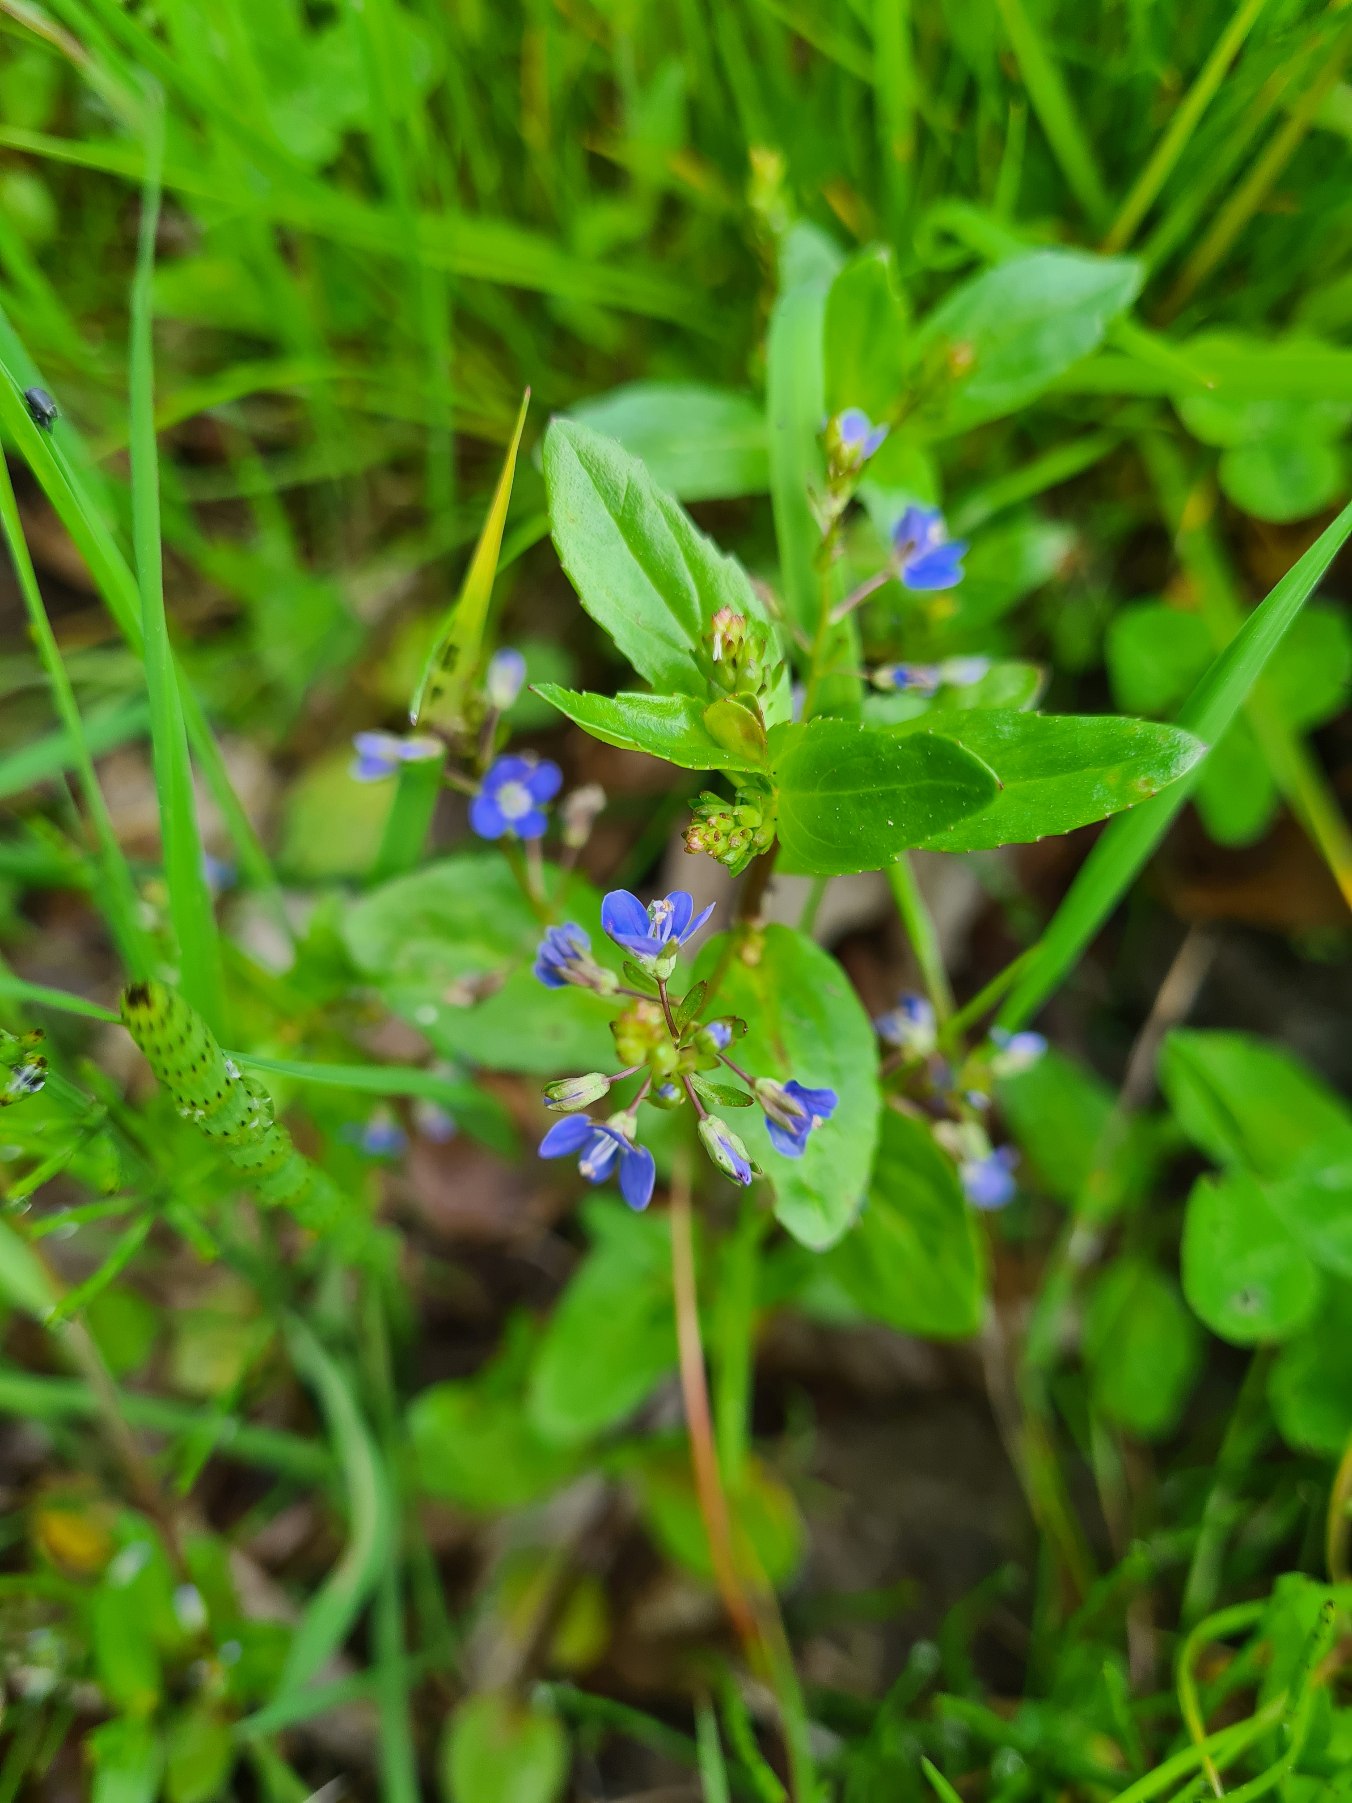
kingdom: Plantae
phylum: Tracheophyta
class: Magnoliopsida
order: Lamiales
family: Plantaginaceae
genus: Veronica
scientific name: Veronica beccabunga
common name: Tykbladet ærenpris
